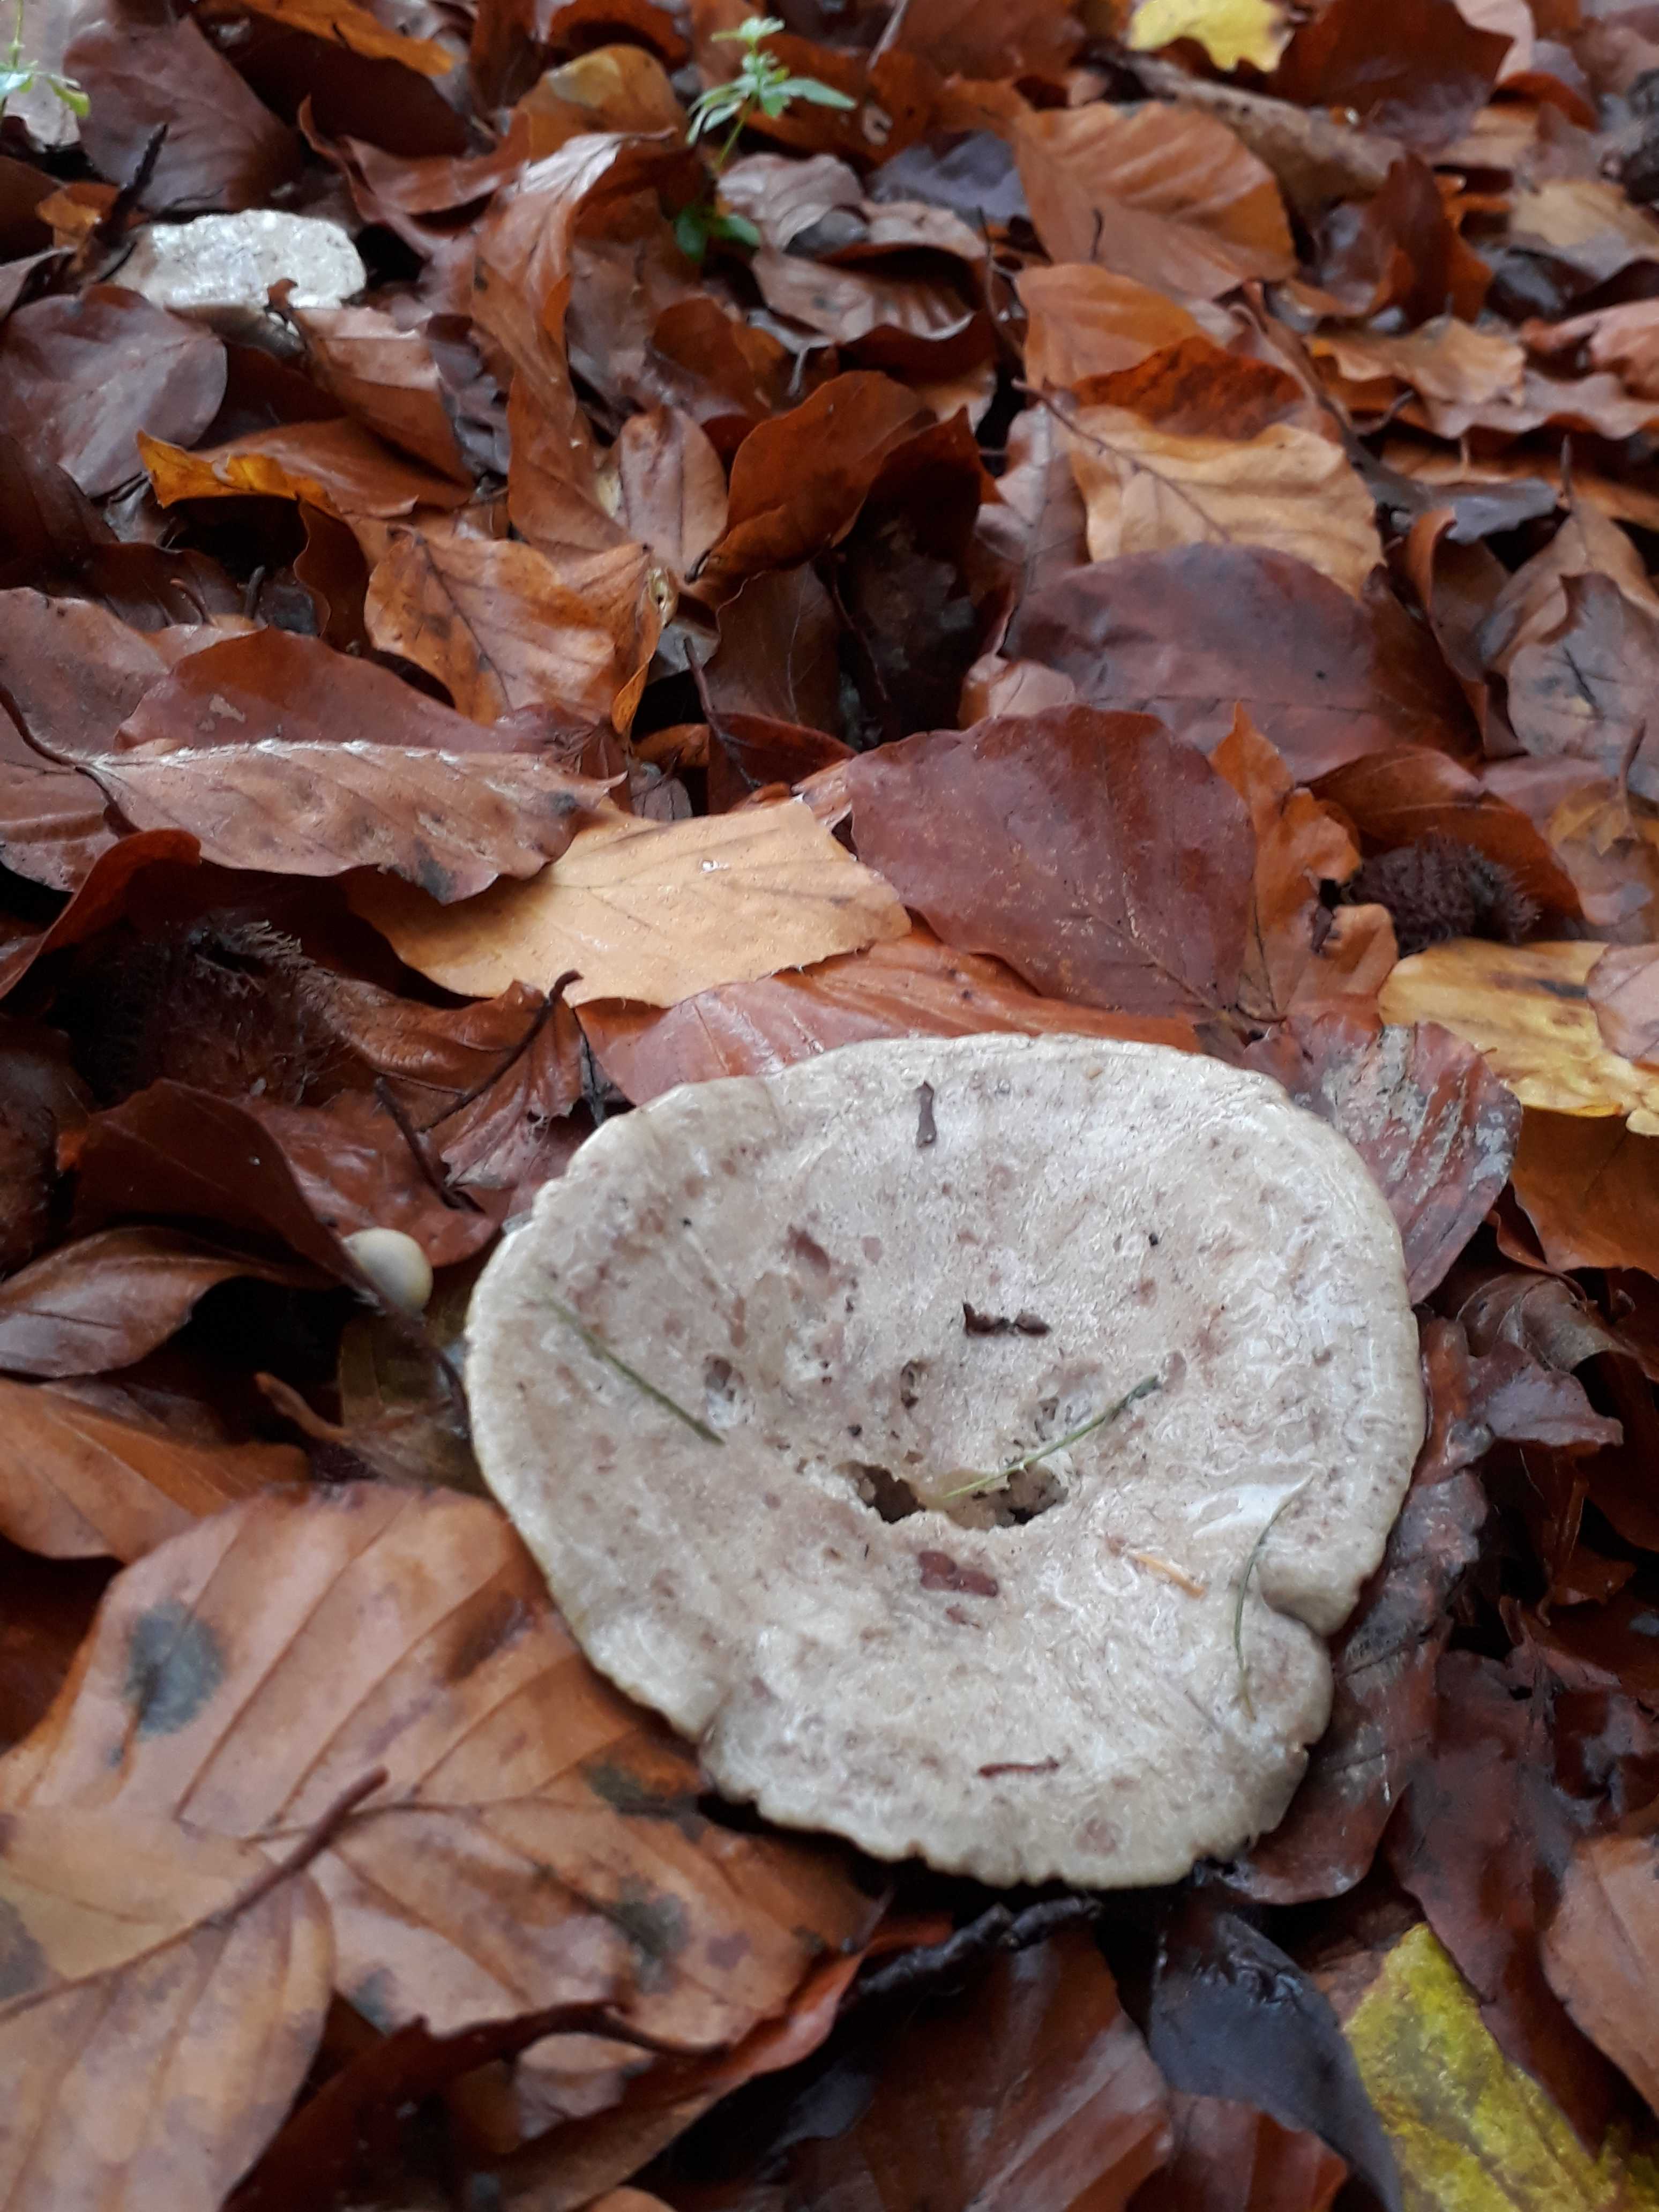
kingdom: Fungi
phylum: Basidiomycota
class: Agaricomycetes
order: Russulales
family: Russulaceae
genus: Lactarius
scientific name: Lactarius blennius
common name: dråbeplettet mælkehat
